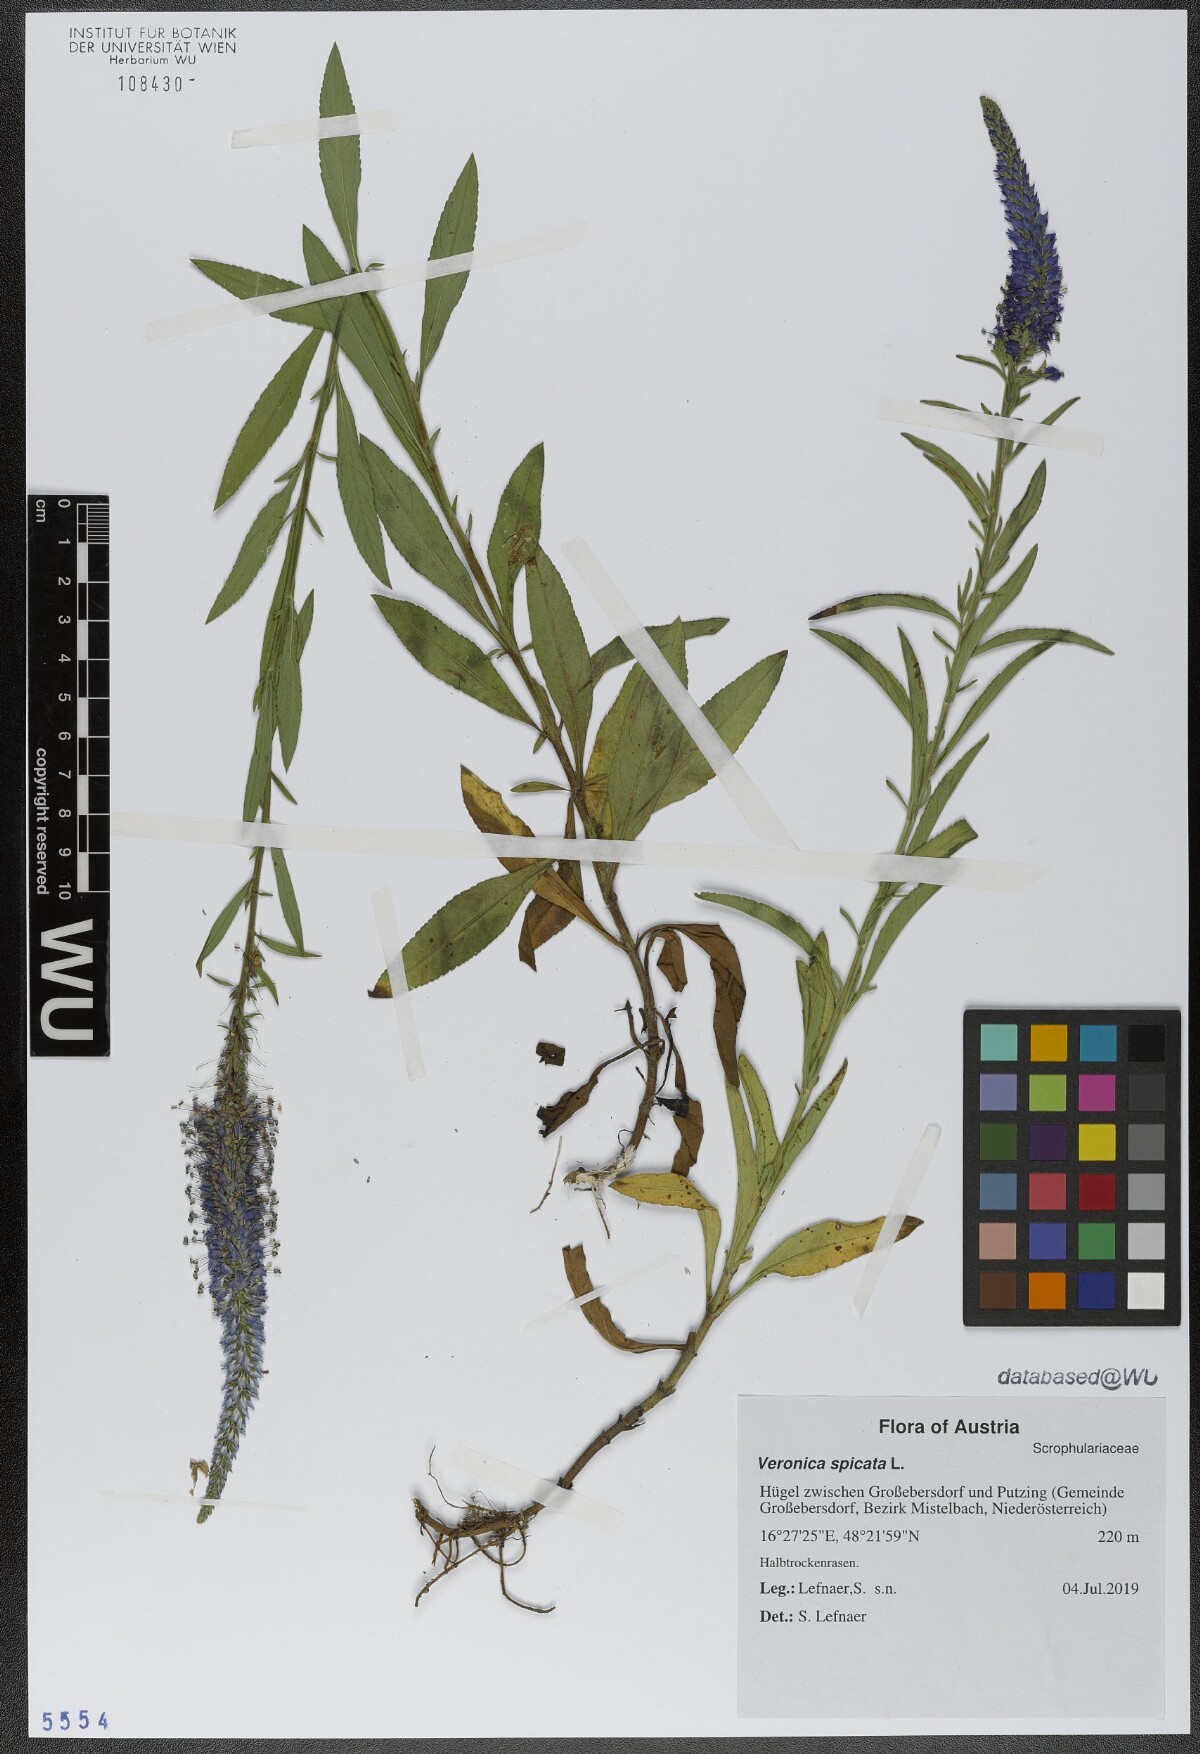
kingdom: Plantae
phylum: Tracheophyta
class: Magnoliopsida
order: Lamiales
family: Plantaginaceae
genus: Veronica
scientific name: Veronica spicata
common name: Spiked speedwell
